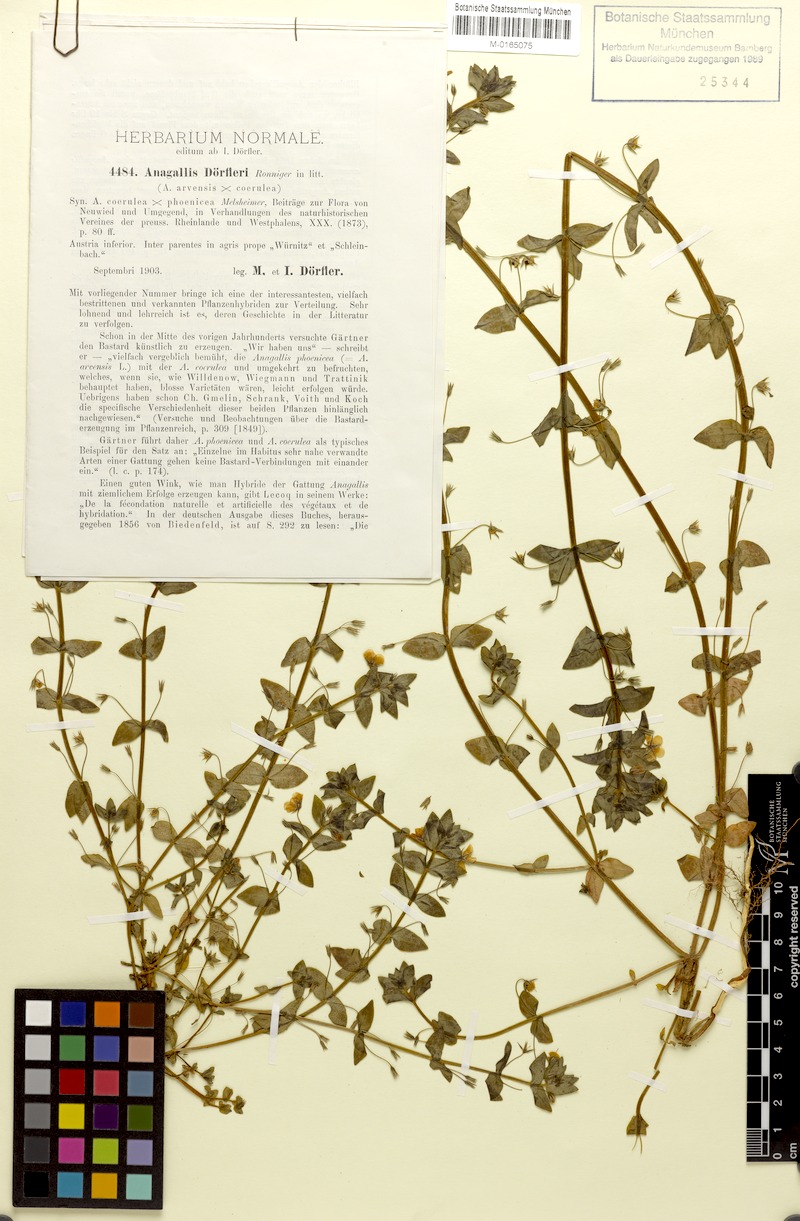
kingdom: Plantae
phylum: Tracheophyta
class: Magnoliopsida
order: Ericales
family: Primulaceae
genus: Lysimachia
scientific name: Lysimachia foemina
